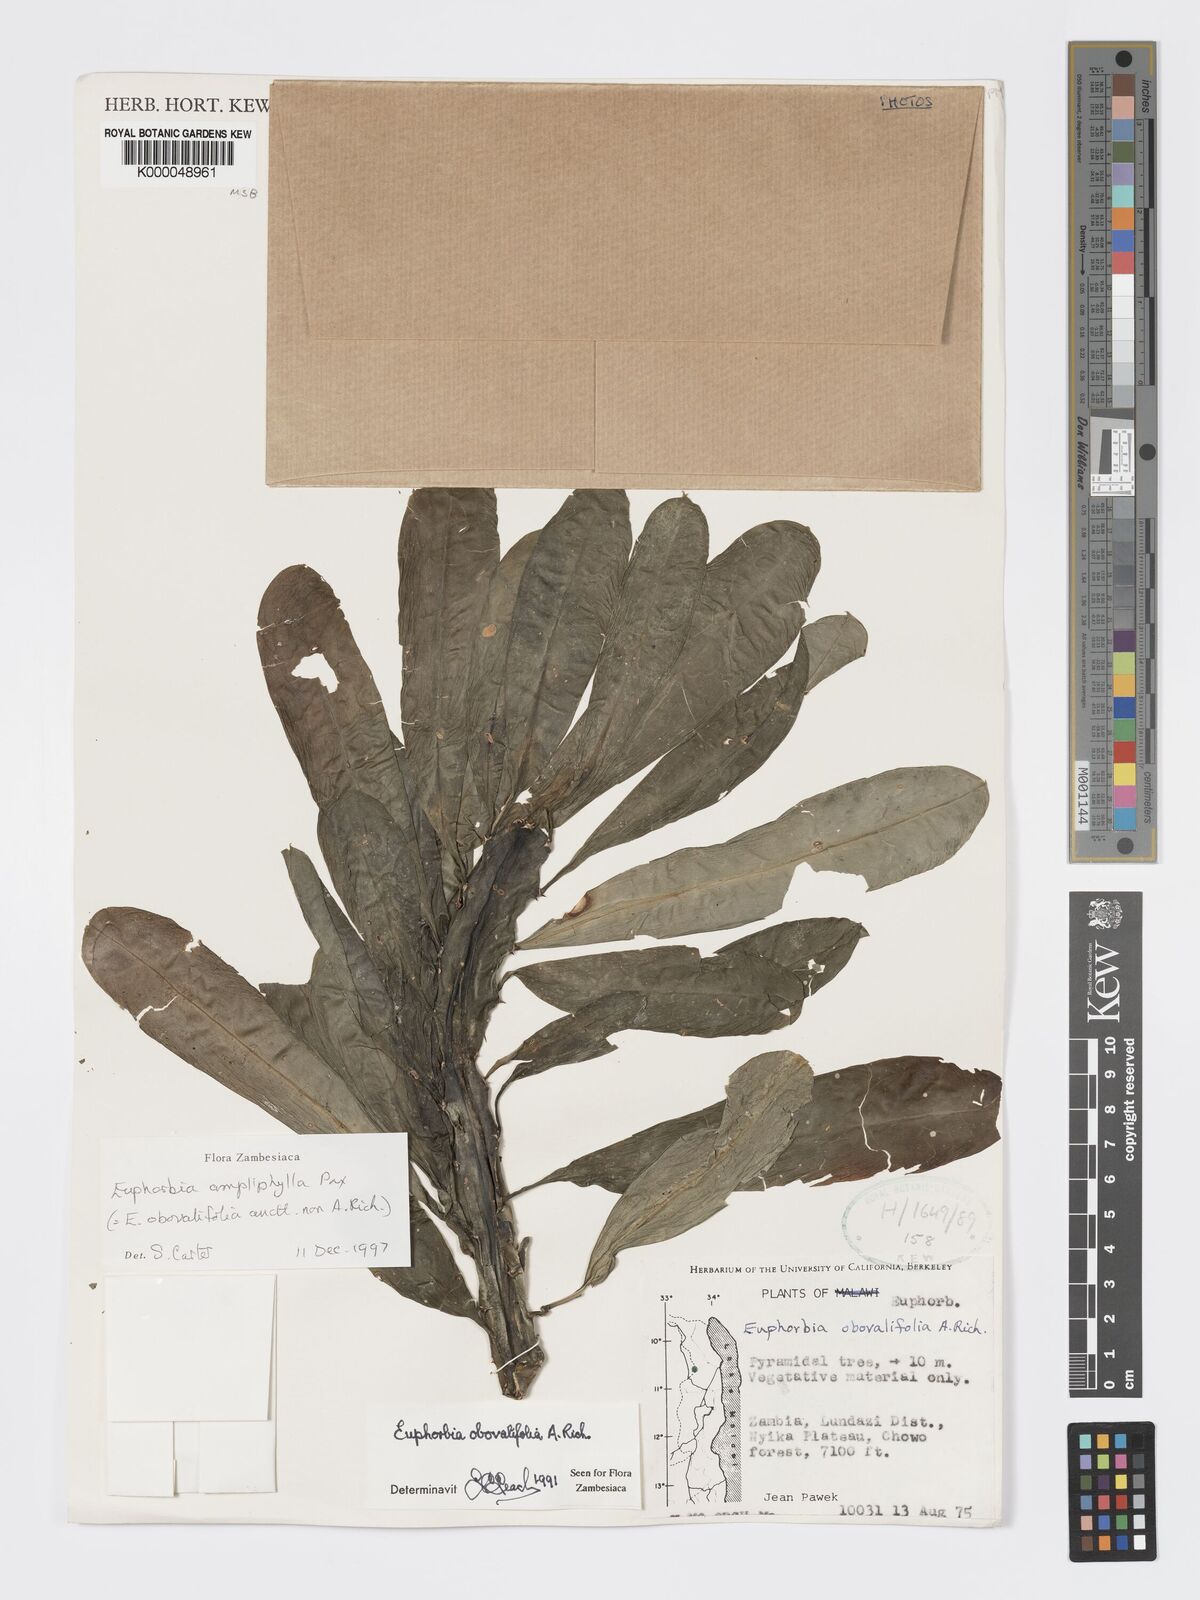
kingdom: Plantae
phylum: Tracheophyta
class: Magnoliopsida
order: Malpighiales
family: Euphorbiaceae
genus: Euphorbia
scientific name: Euphorbia ampliphylla
